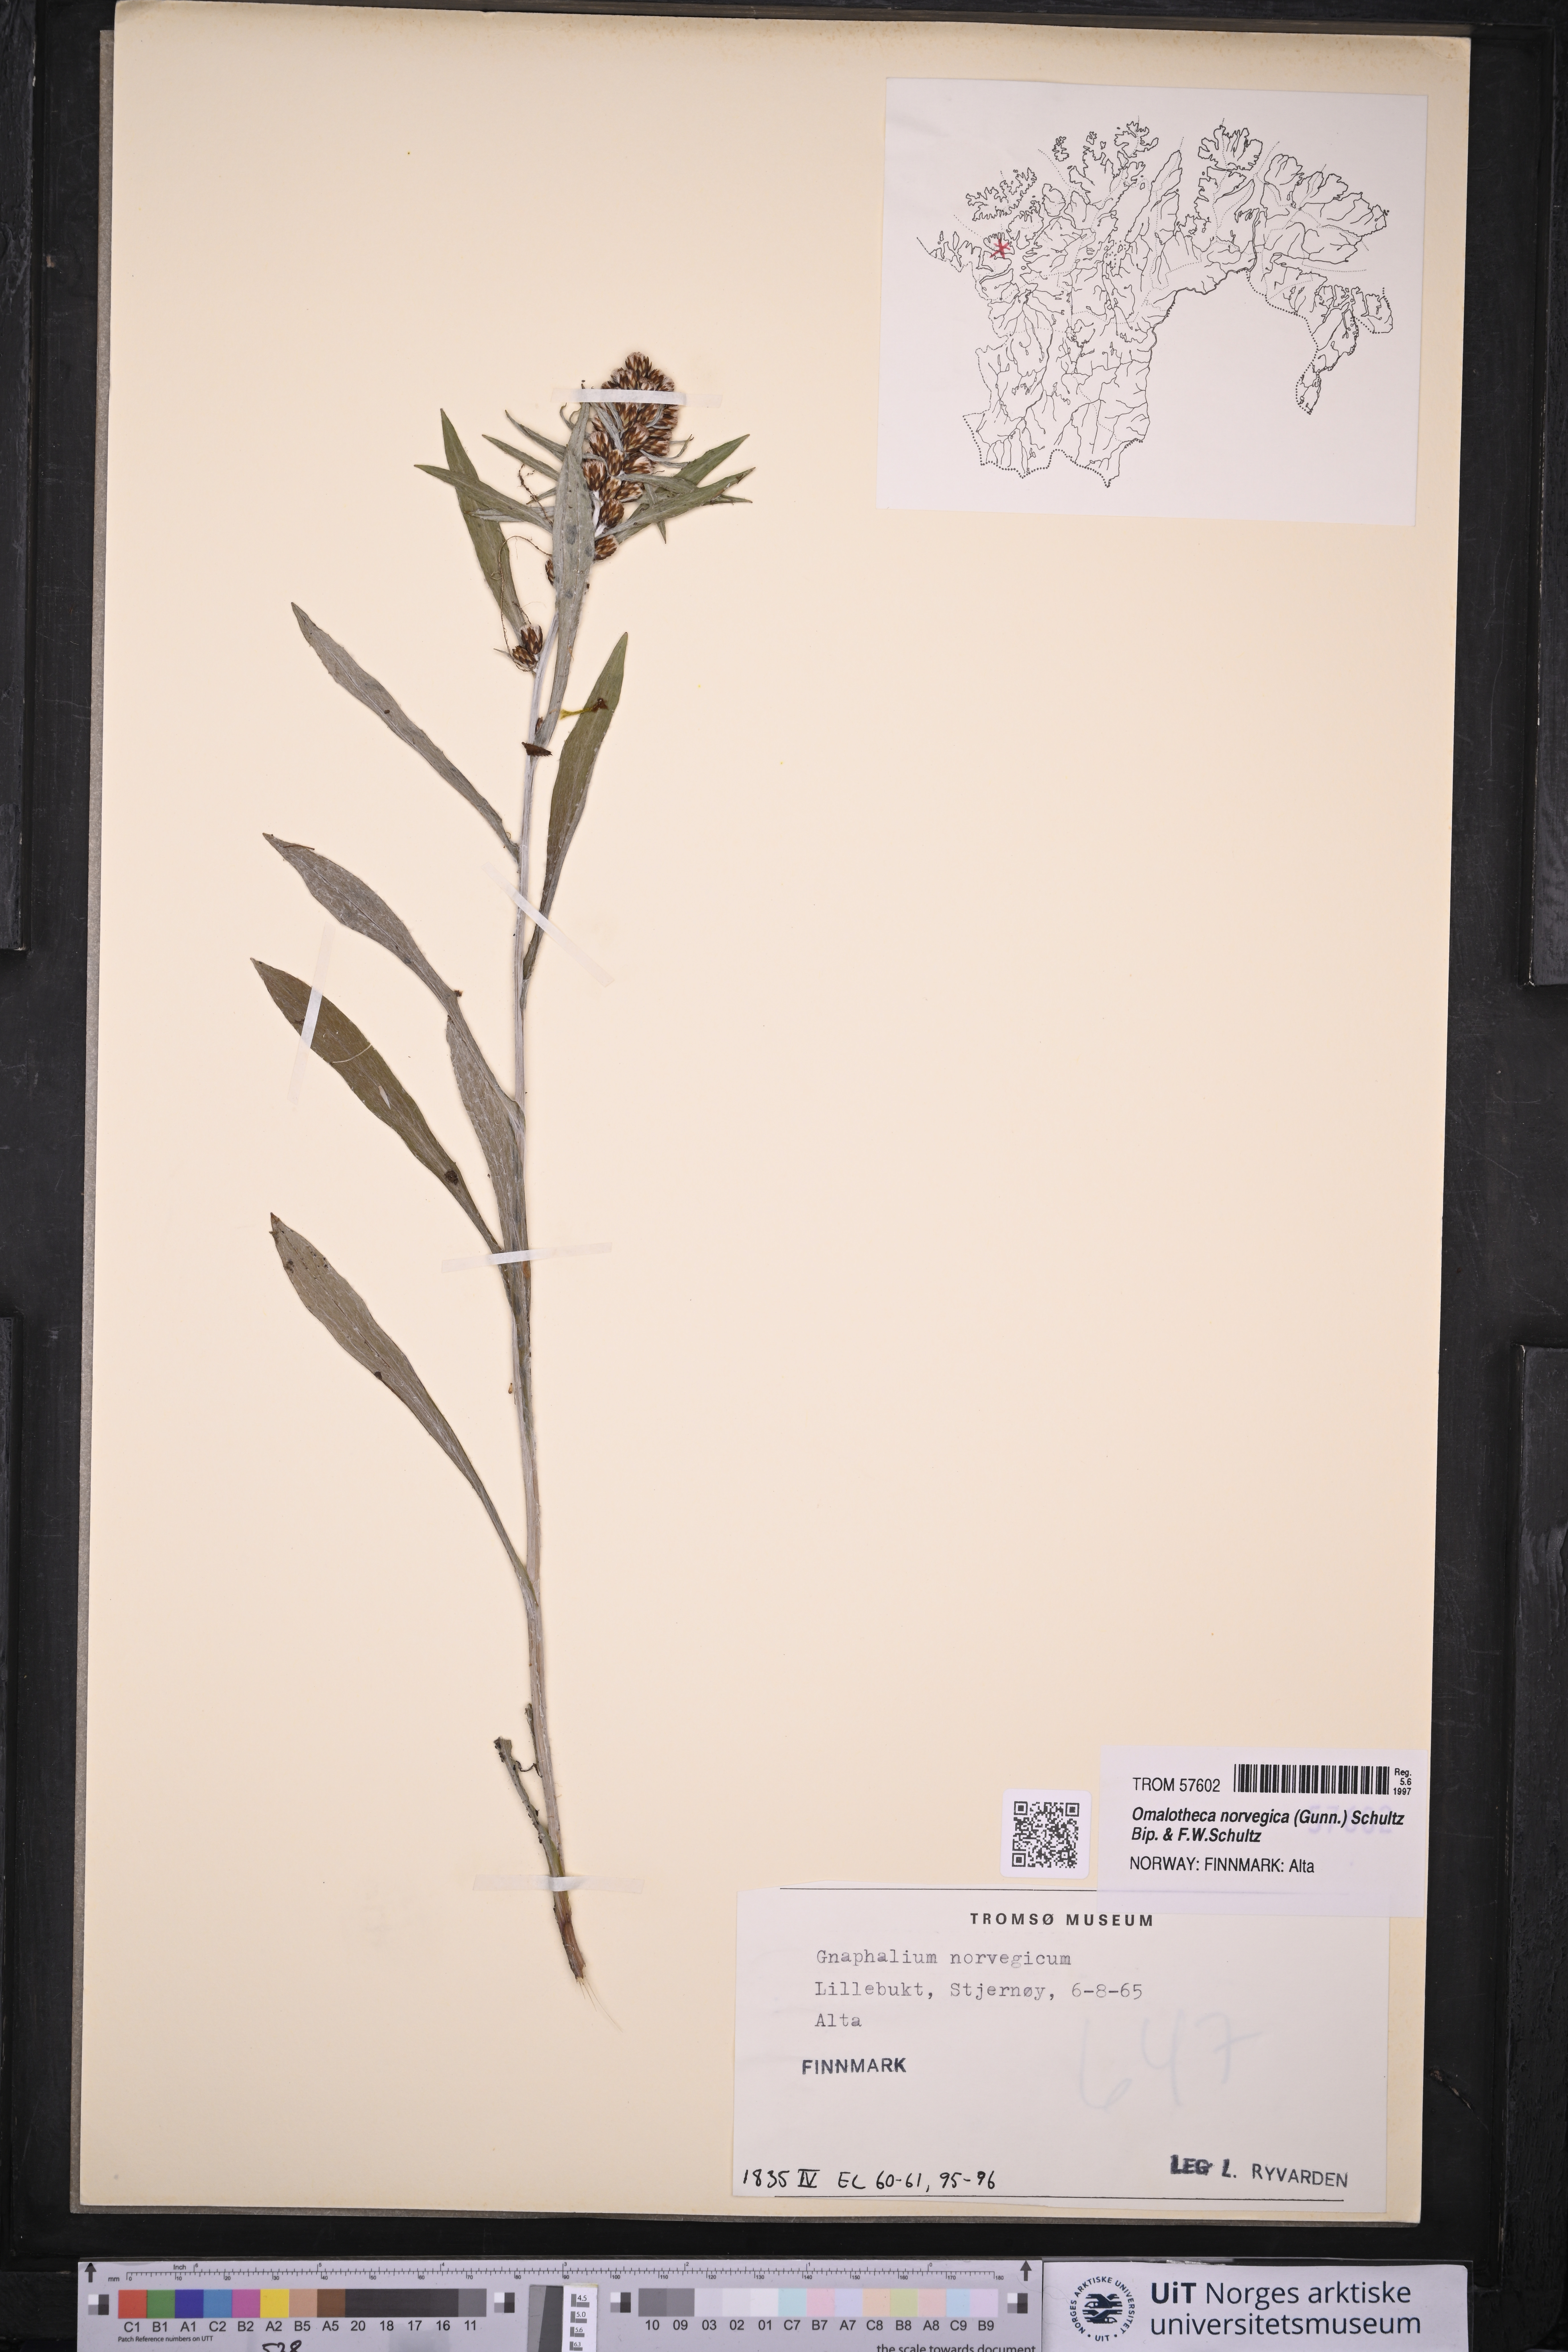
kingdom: Plantae
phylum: Tracheophyta
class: Magnoliopsida
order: Asterales
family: Asteraceae
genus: Omalotheca
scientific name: Omalotheca norvegica
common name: Norwegian arctic-cudweed
